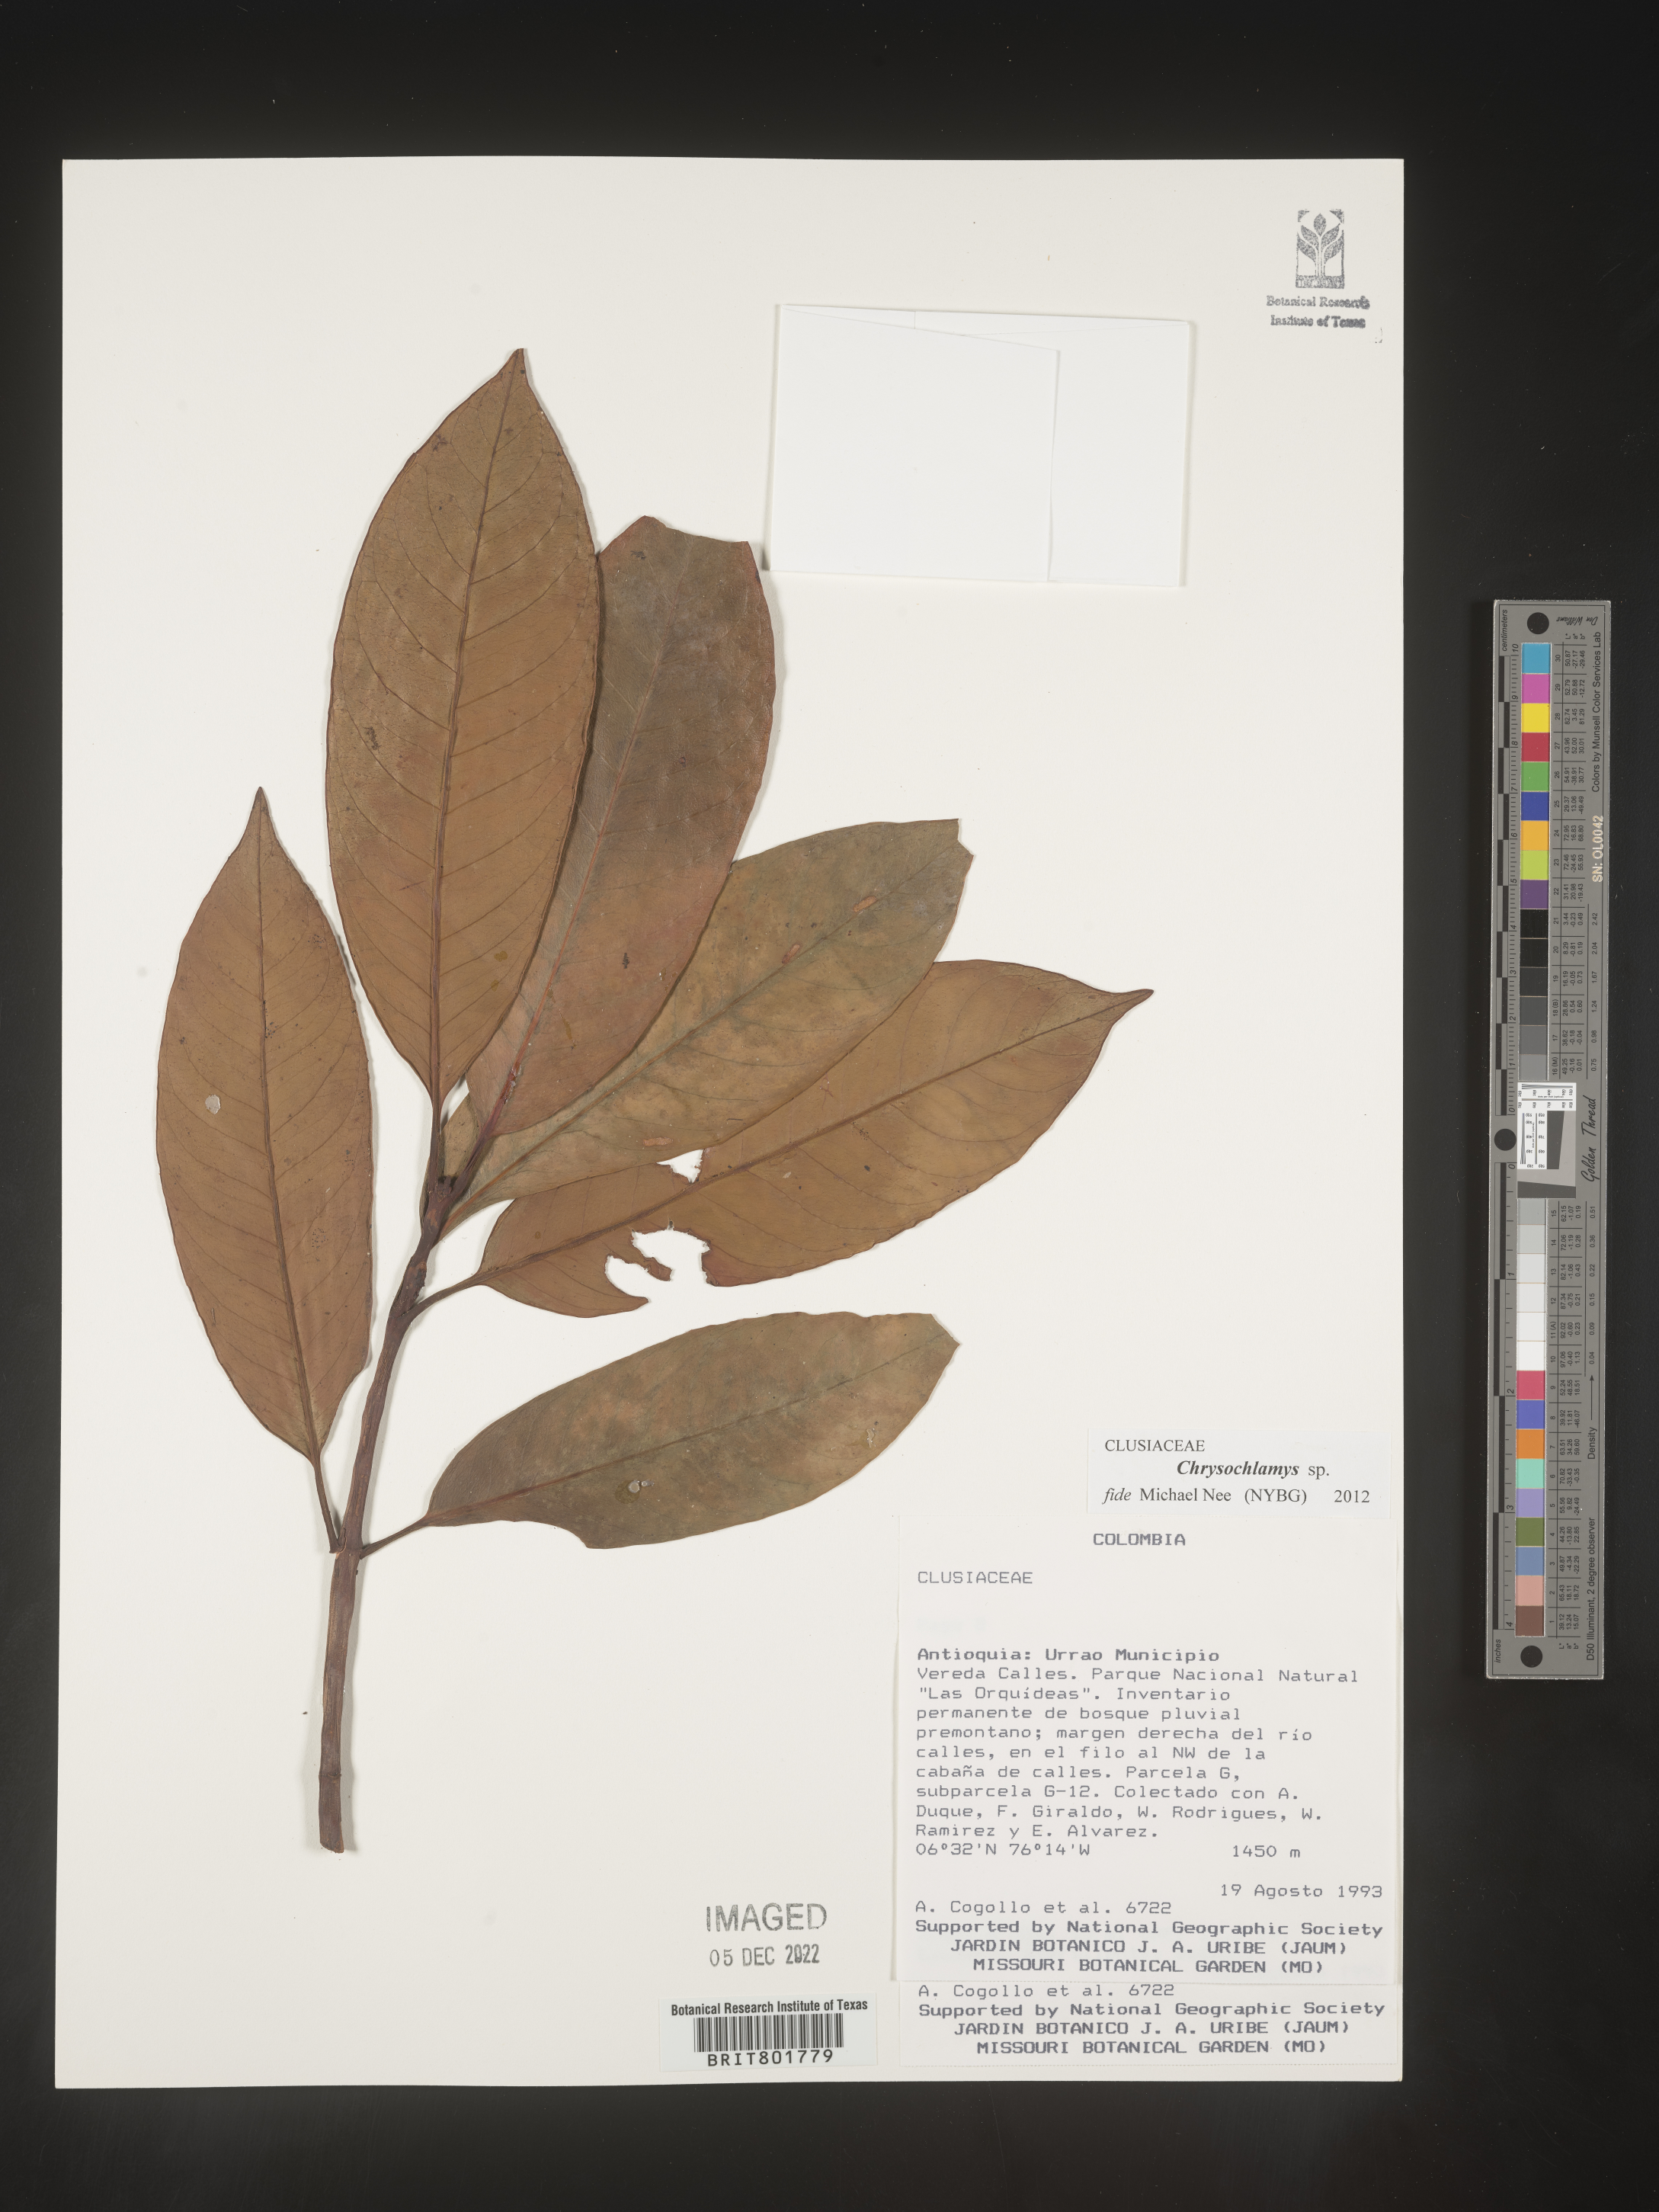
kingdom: Plantae
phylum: Tracheophyta
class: Magnoliopsida
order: Malpighiales
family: Clusiaceae
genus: Chrysochlamys
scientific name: Chrysochlamys
